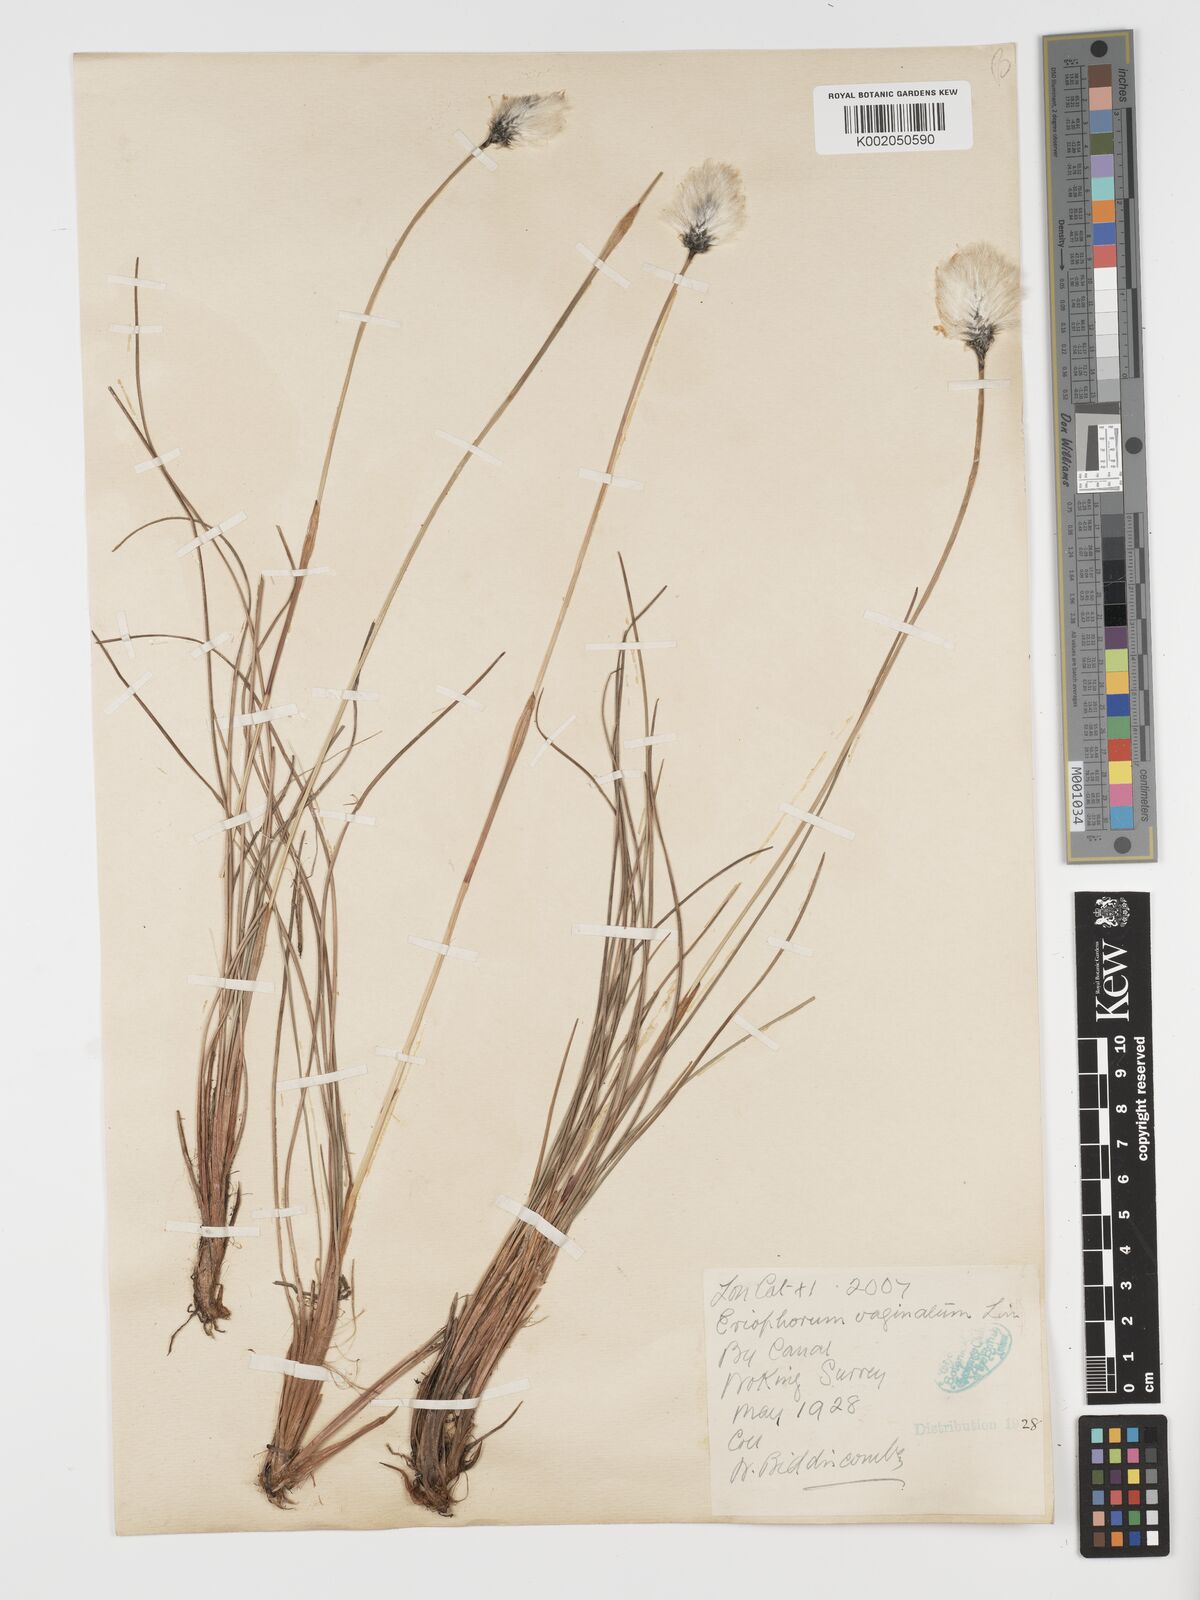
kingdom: Plantae
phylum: Tracheophyta
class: Liliopsida
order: Poales
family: Cyperaceae
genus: Eriophorum
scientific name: Eriophorum vaginatum
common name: Hare's-tail cottongrass
